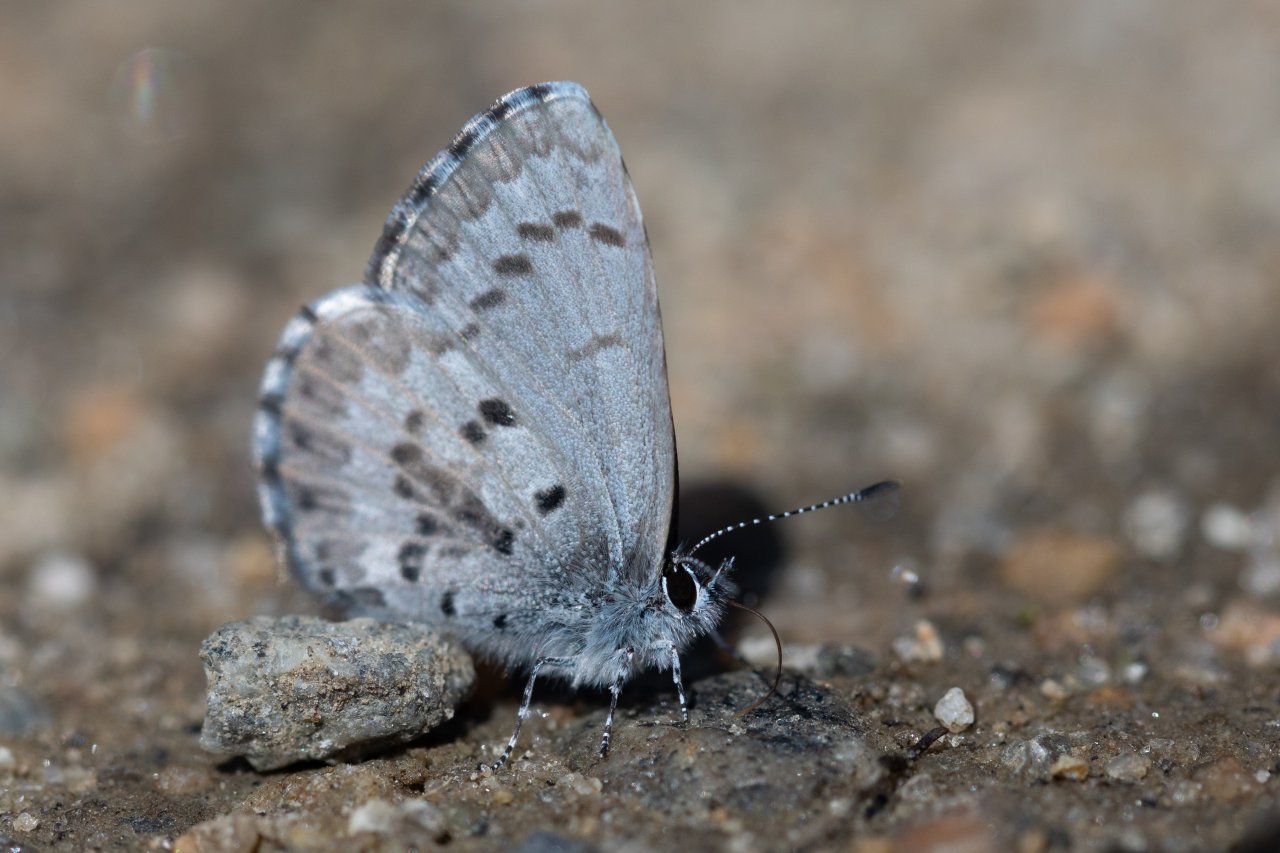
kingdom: Animalia
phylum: Arthropoda
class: Insecta
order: Lepidoptera
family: Lycaenidae
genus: Celastrina
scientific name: Celastrina ladon
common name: Spring Azure
